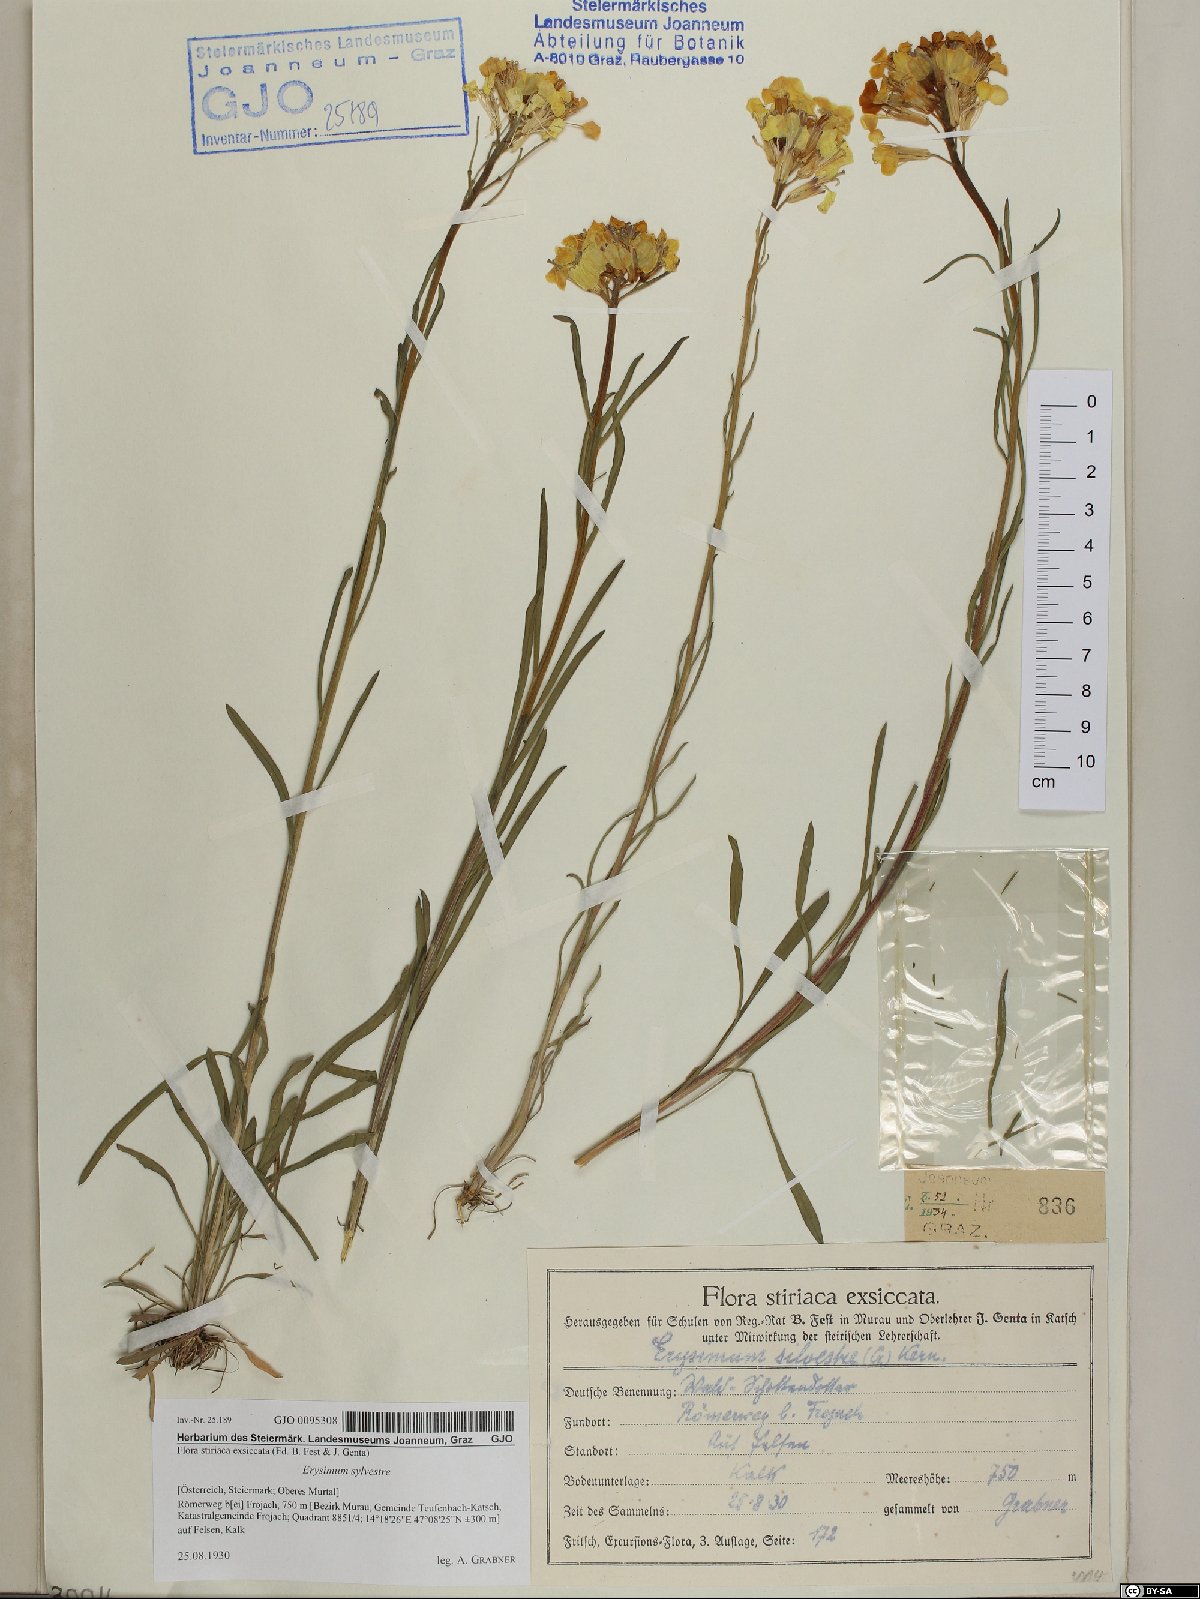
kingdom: Plantae
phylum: Tracheophyta
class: Magnoliopsida
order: Brassicales
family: Brassicaceae
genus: Erysimum
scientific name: Erysimum sylvestre
